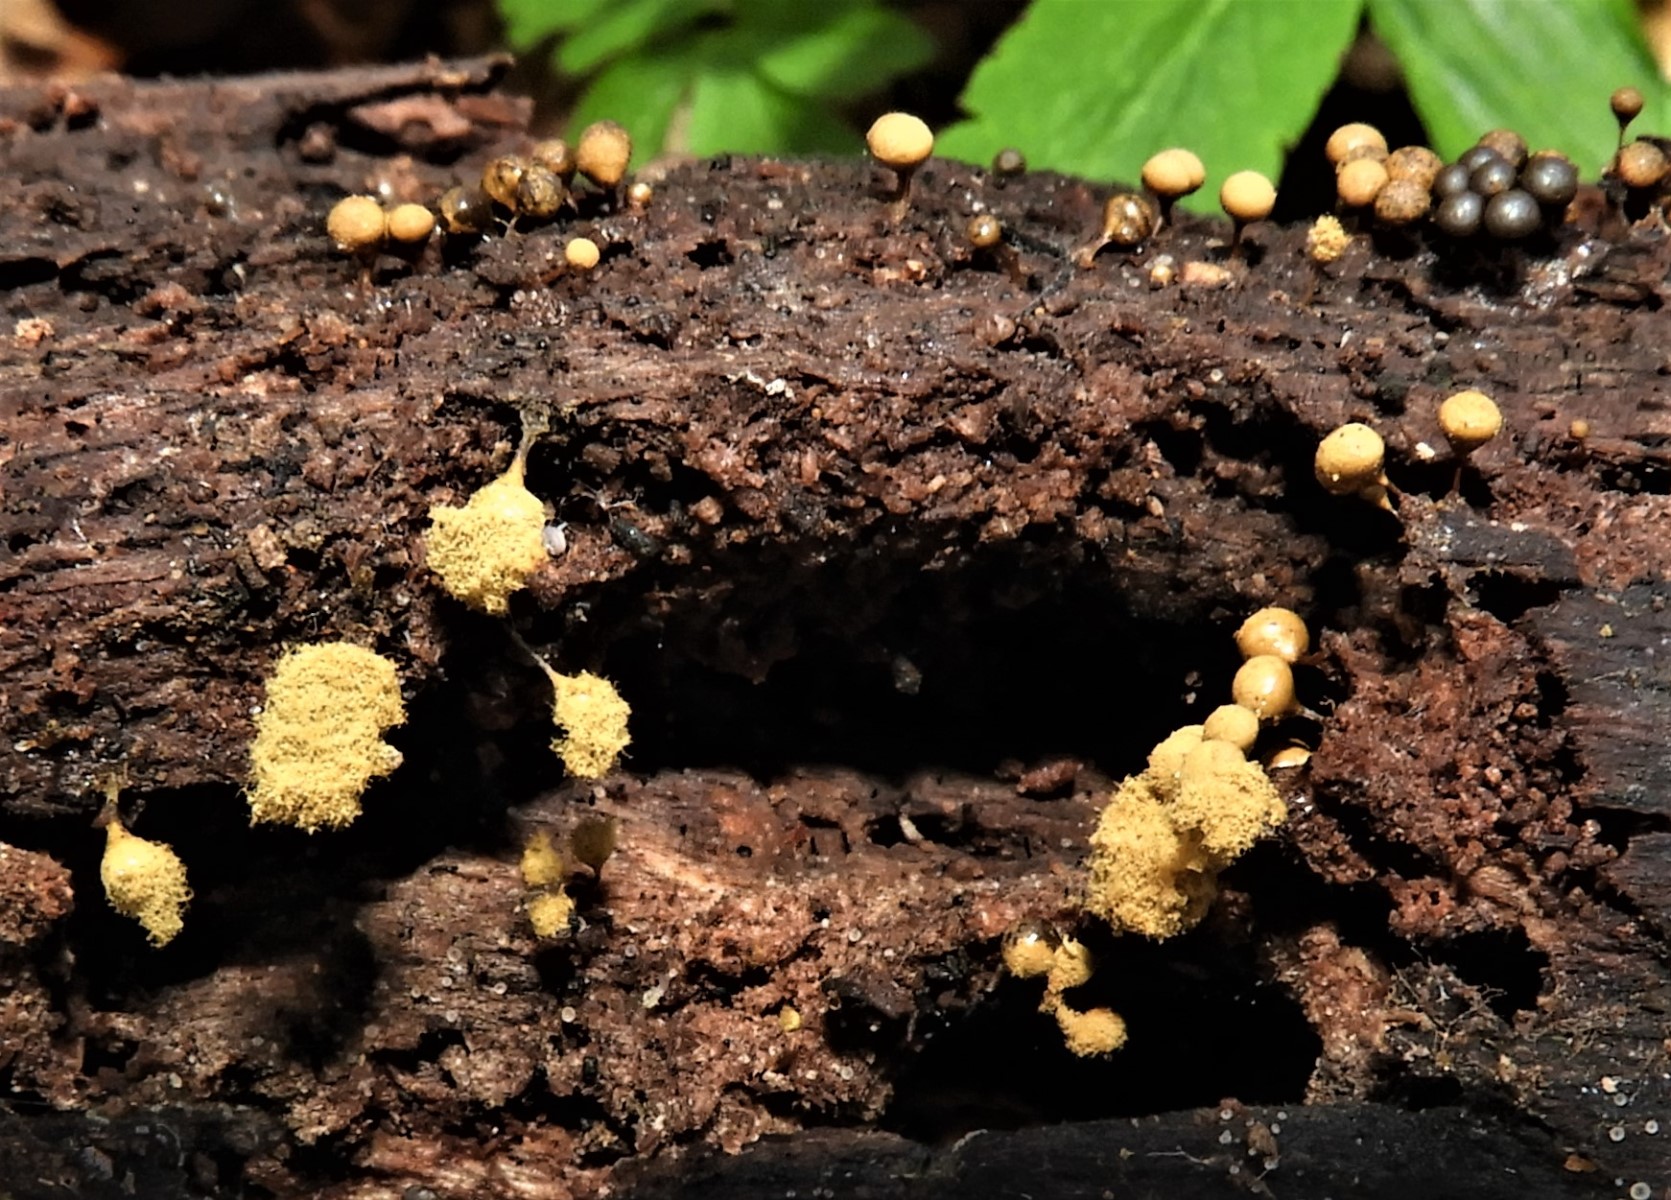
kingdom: Protozoa
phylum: Mycetozoa
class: Myxomycetes
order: Trichiales
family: Trichiaceae
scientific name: Trichiaceae
